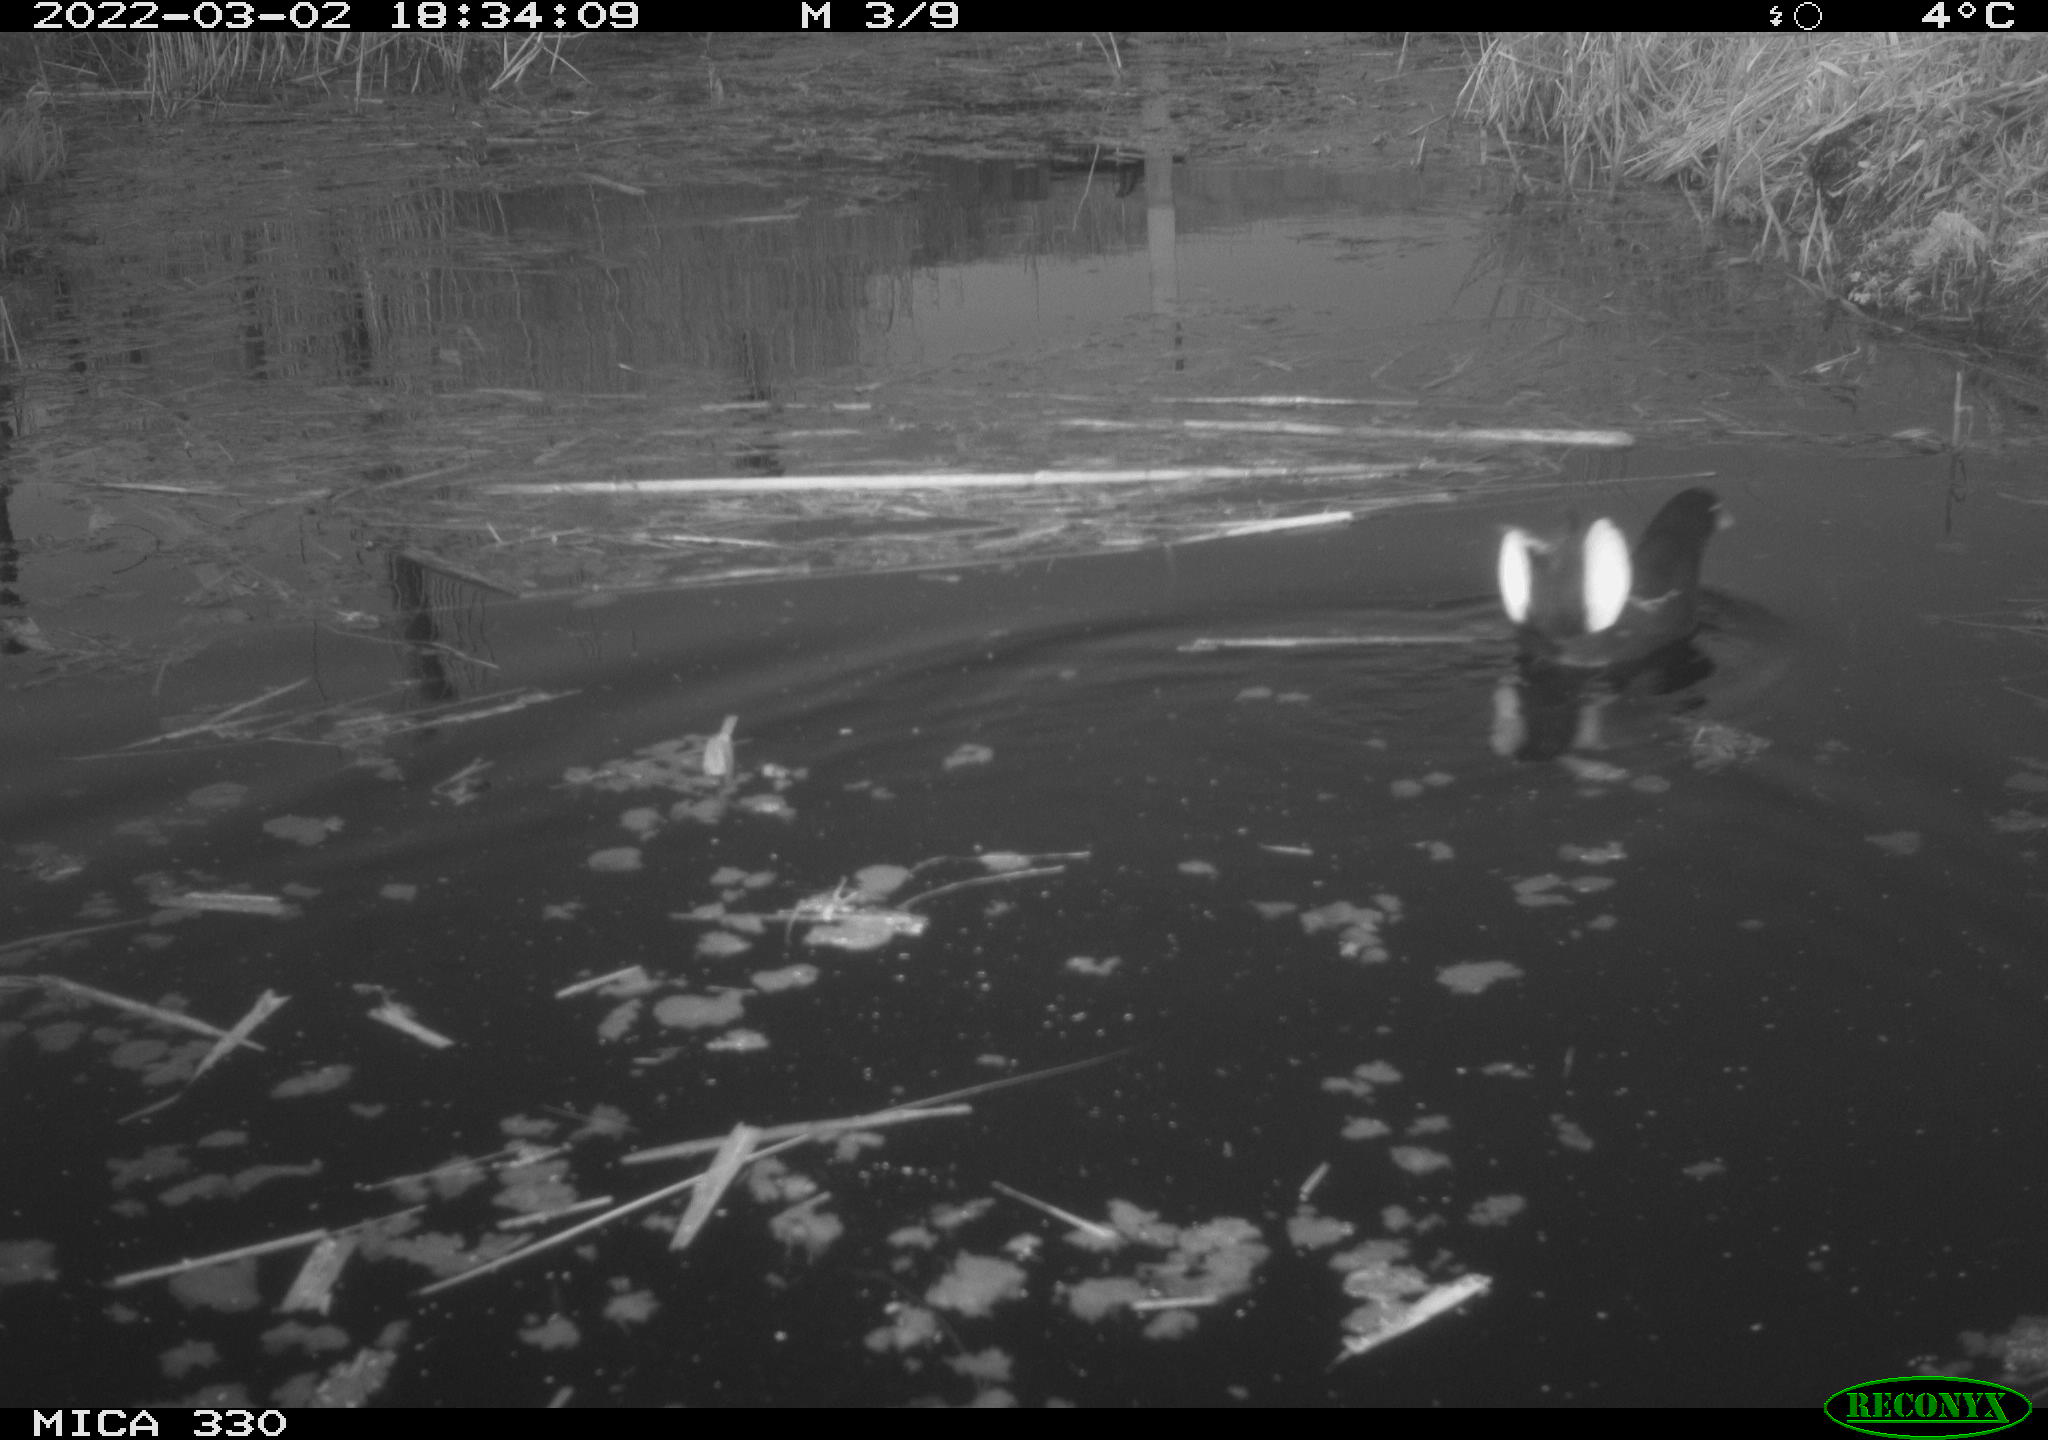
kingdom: Animalia
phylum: Chordata
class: Aves
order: Gruiformes
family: Rallidae
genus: Gallinula
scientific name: Gallinula chloropus
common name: Common moorhen
